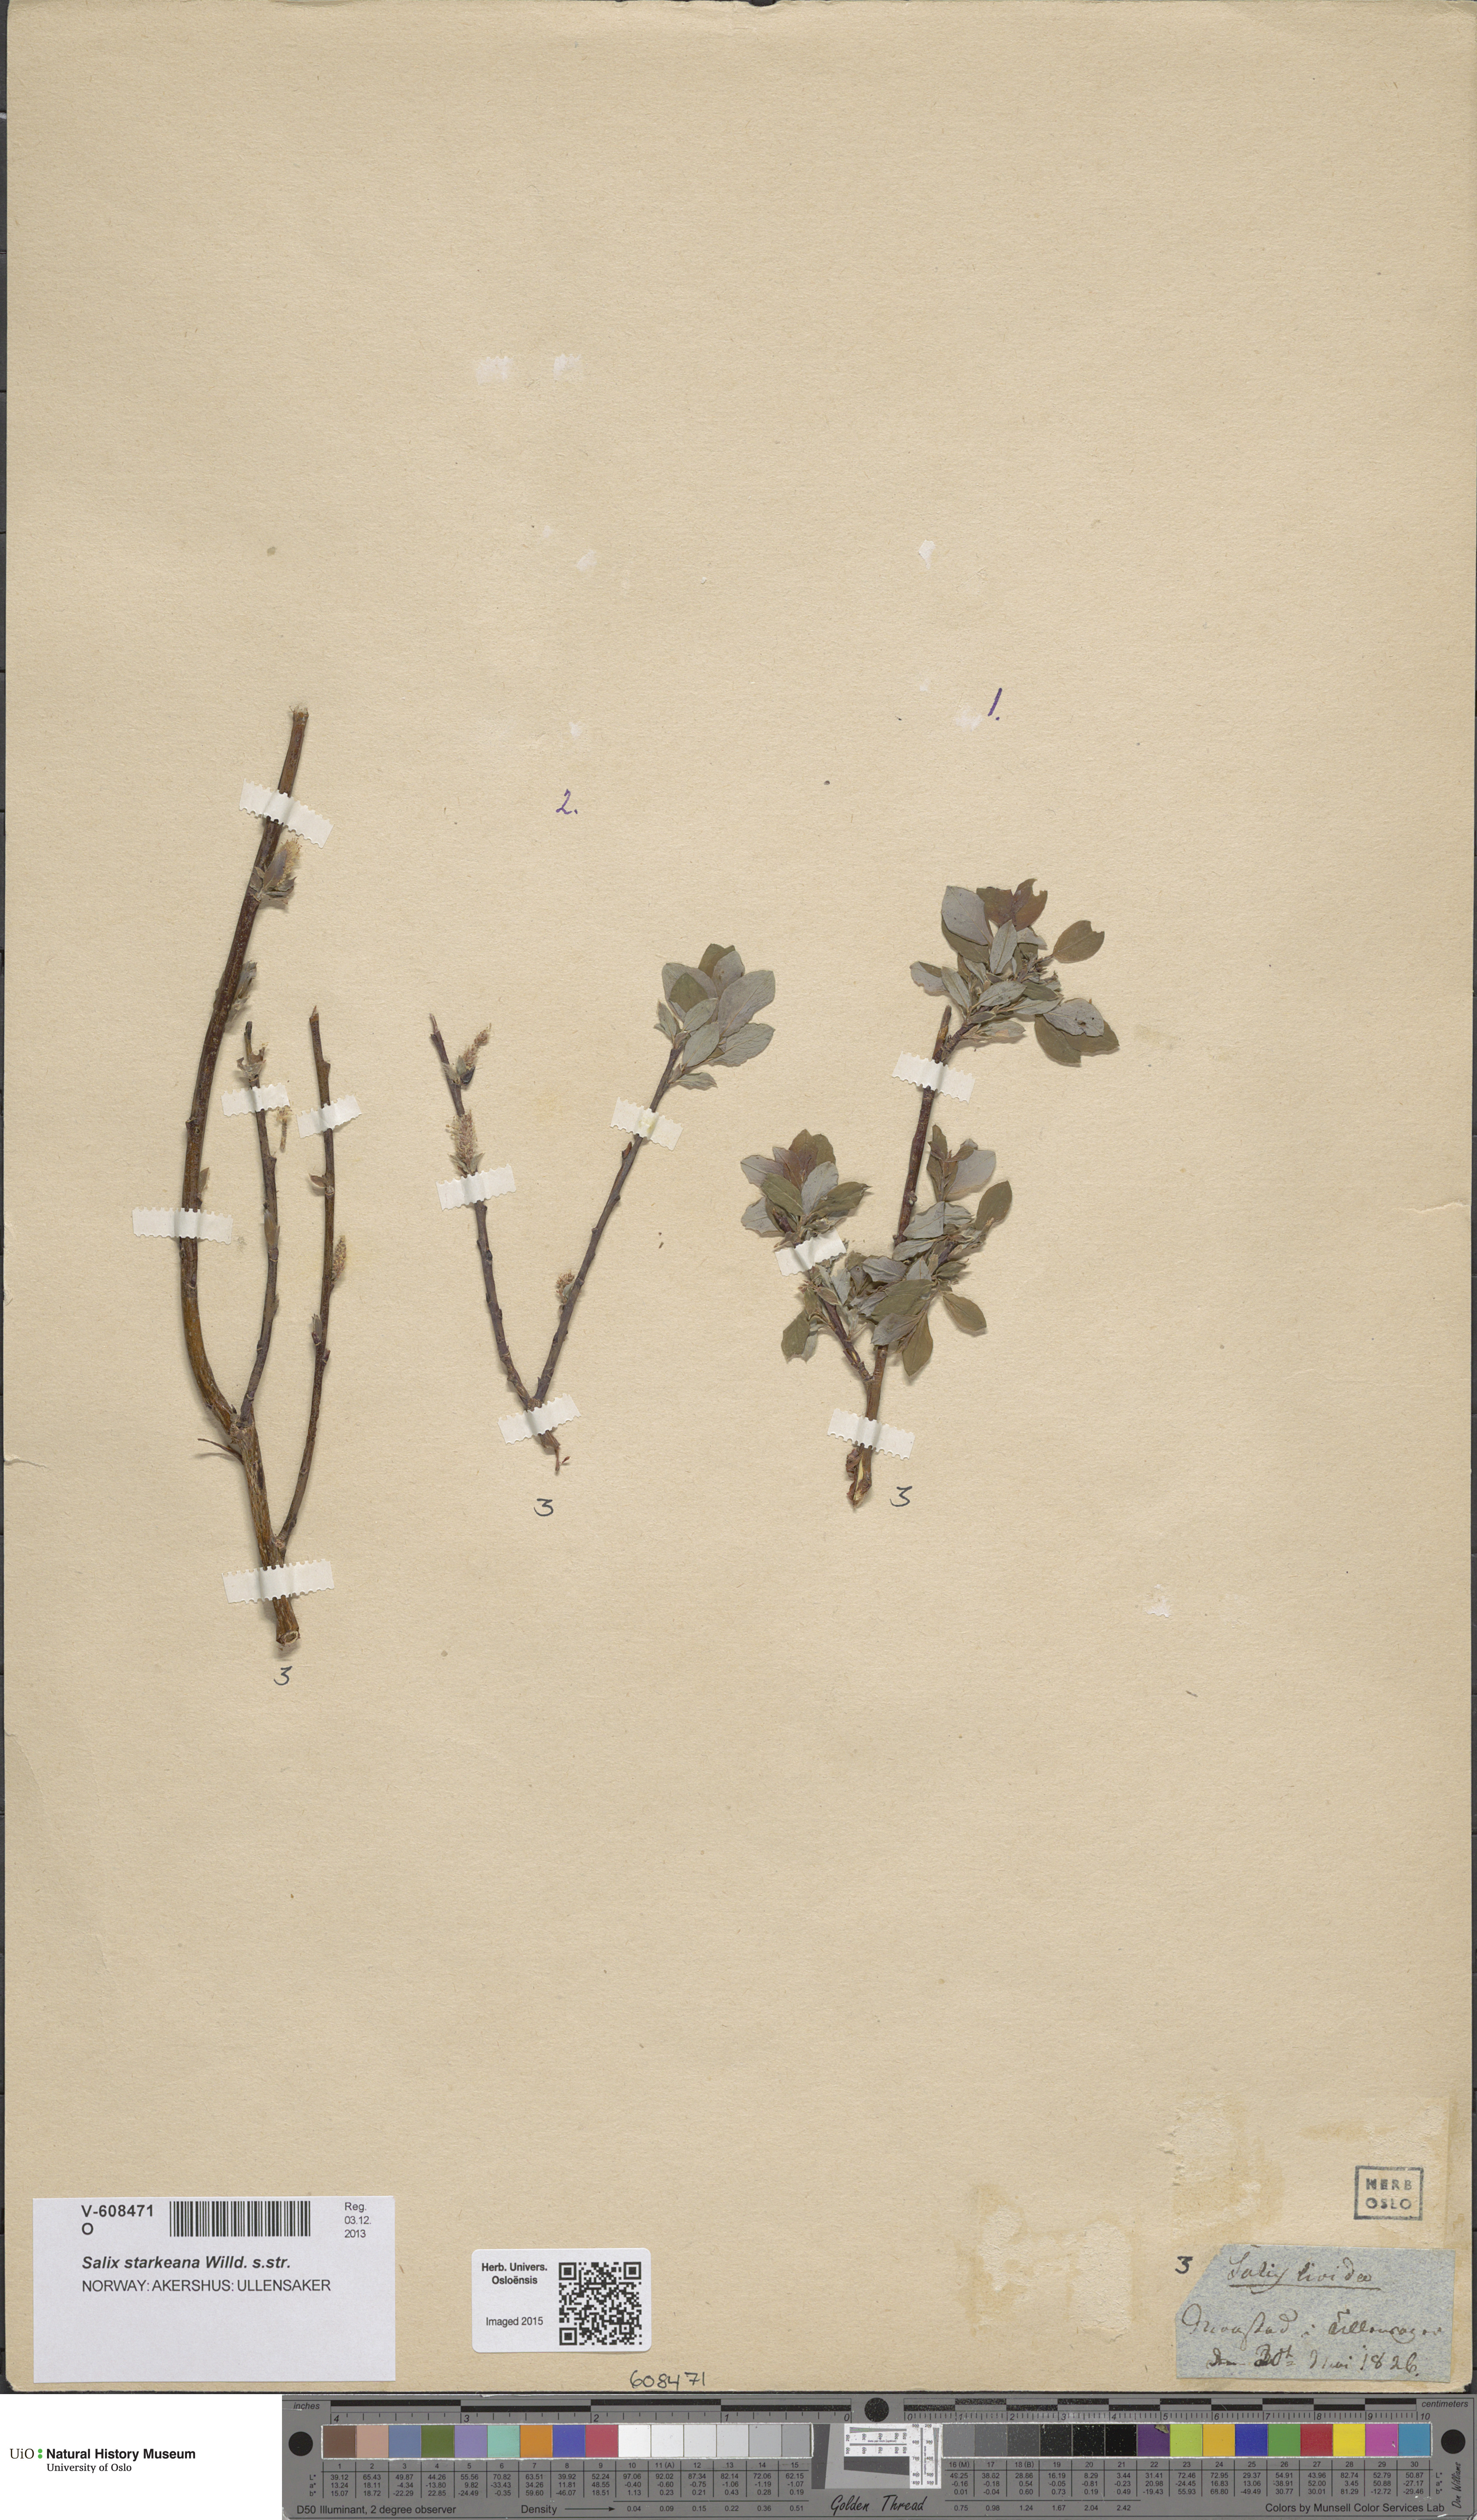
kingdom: Plantae
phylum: Tracheophyta
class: Magnoliopsida
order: Malpighiales
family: Salicaceae
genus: Salix
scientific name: Salix starkeana
